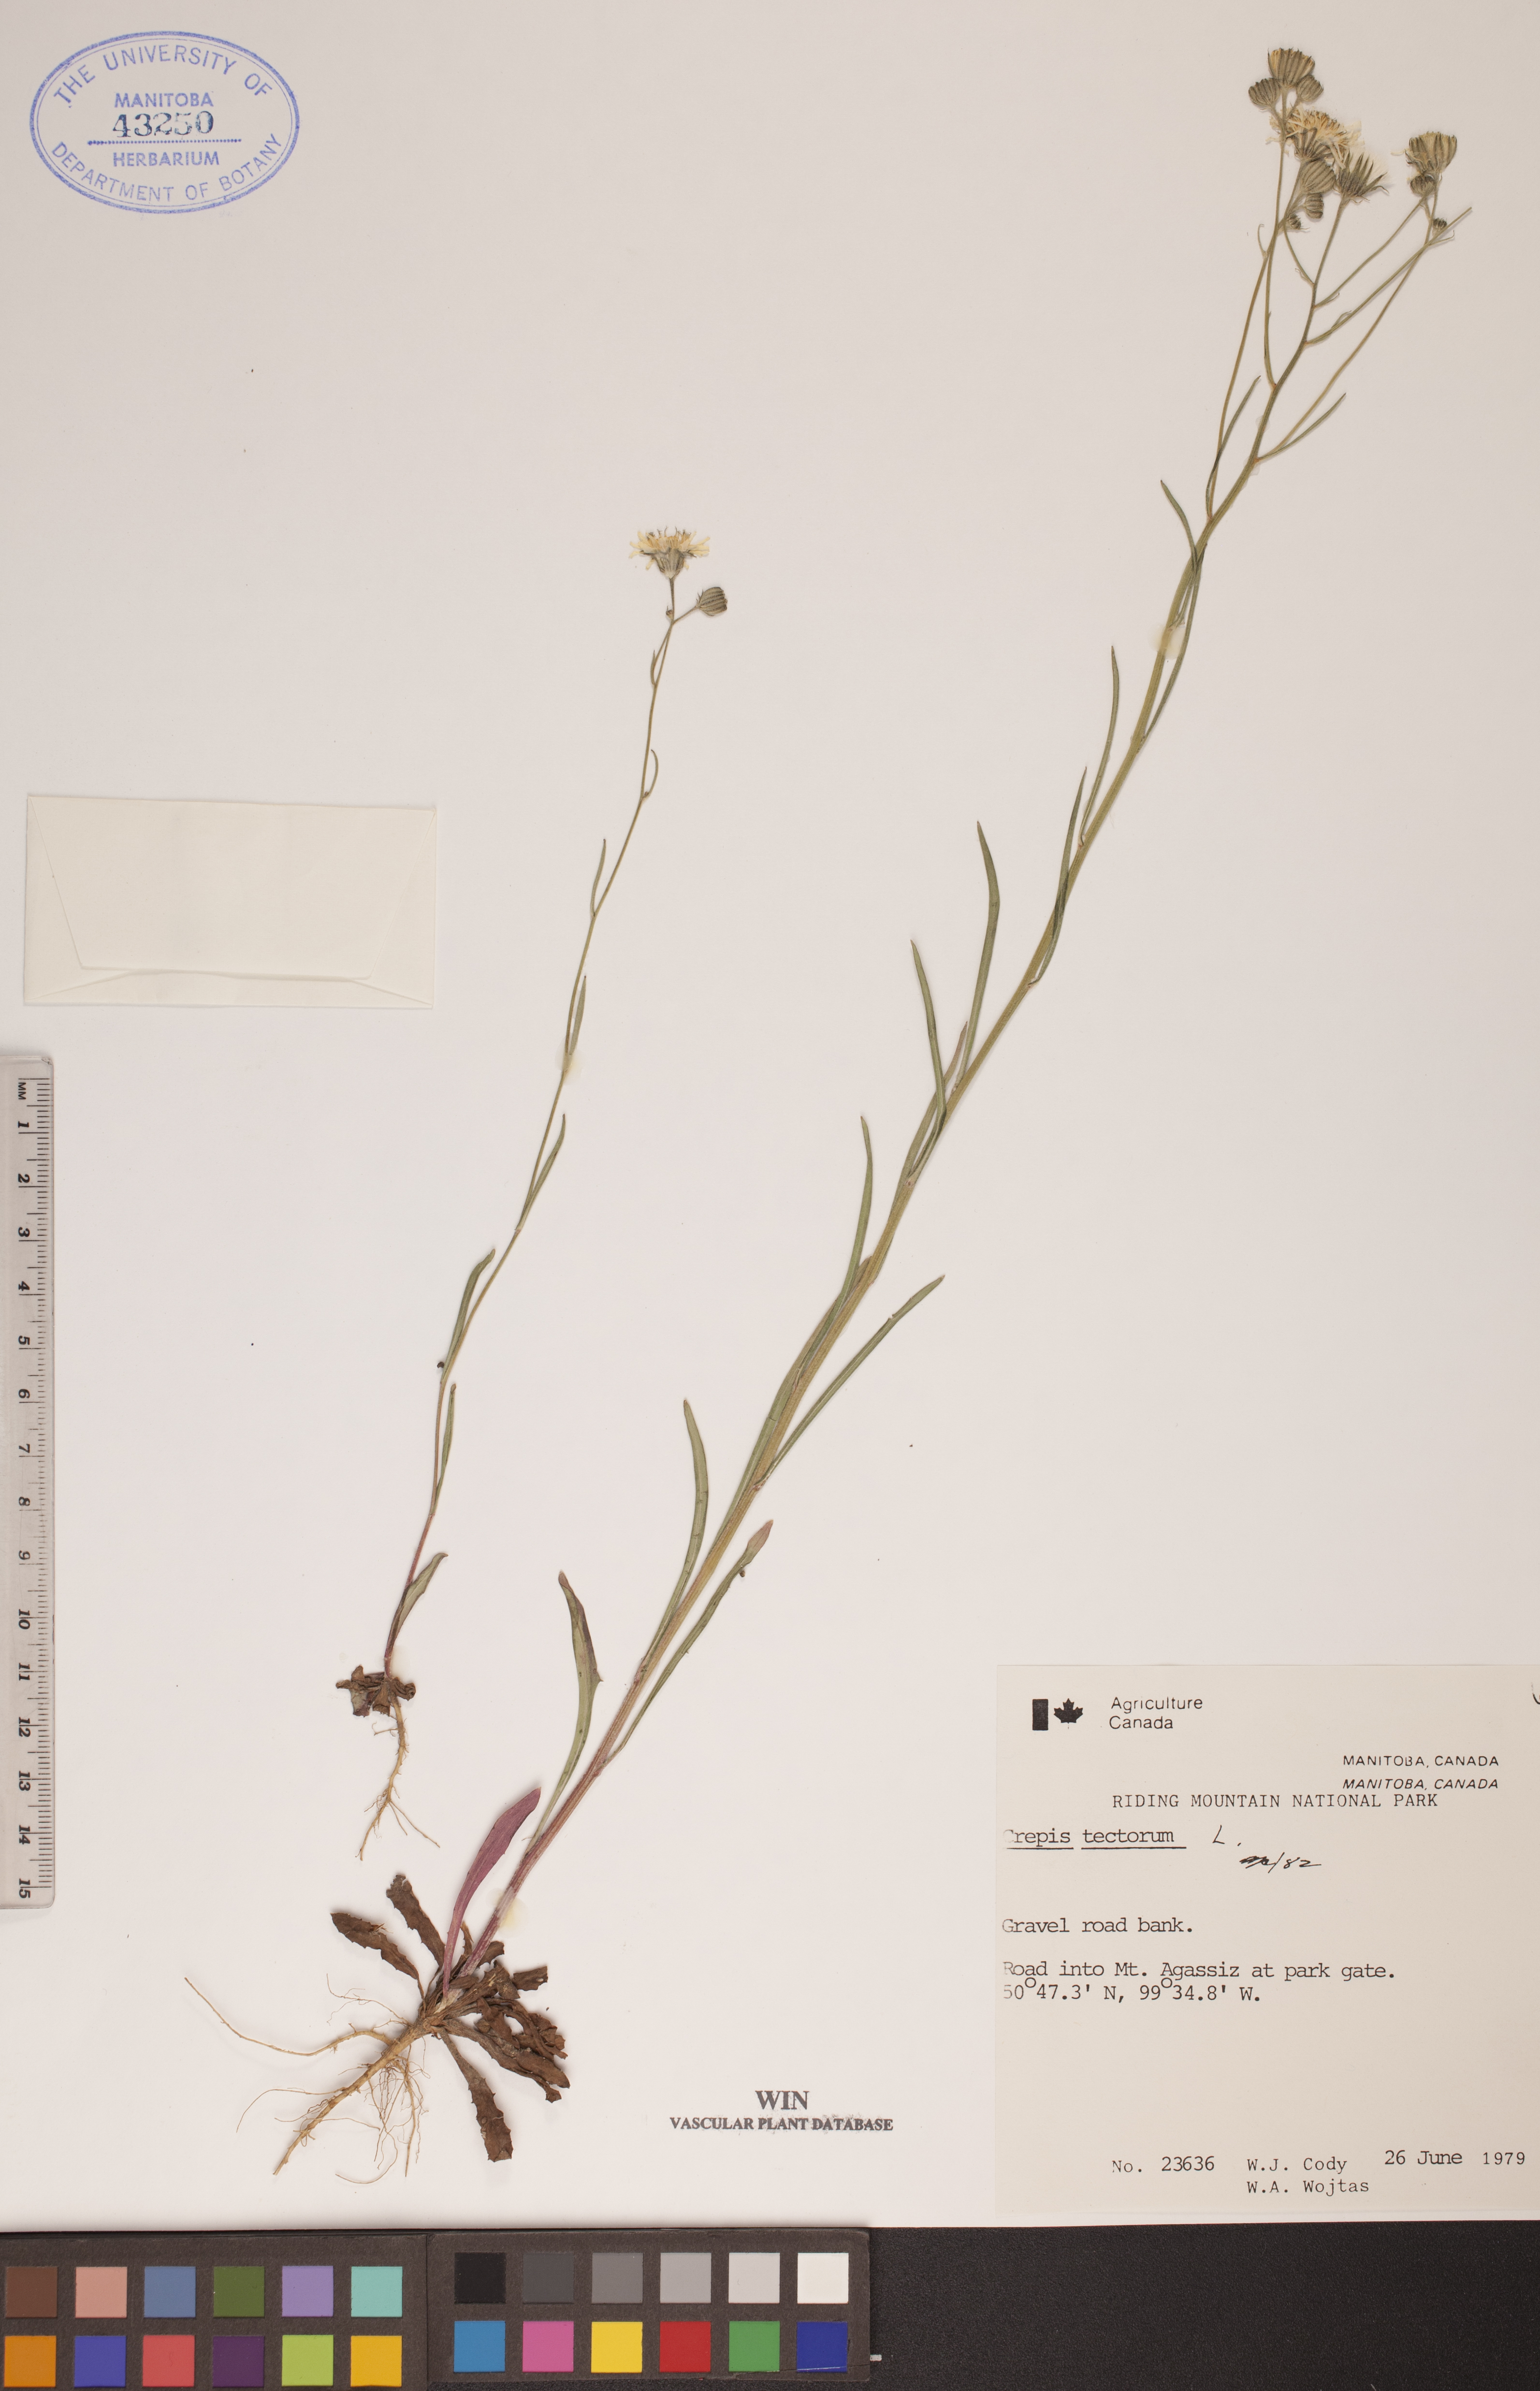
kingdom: Plantae
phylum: Tracheophyta
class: Magnoliopsida
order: Asterales
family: Asteraceae
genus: Crepis
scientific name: Crepis tectorum
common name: Narrow-leaved hawk's-beard
